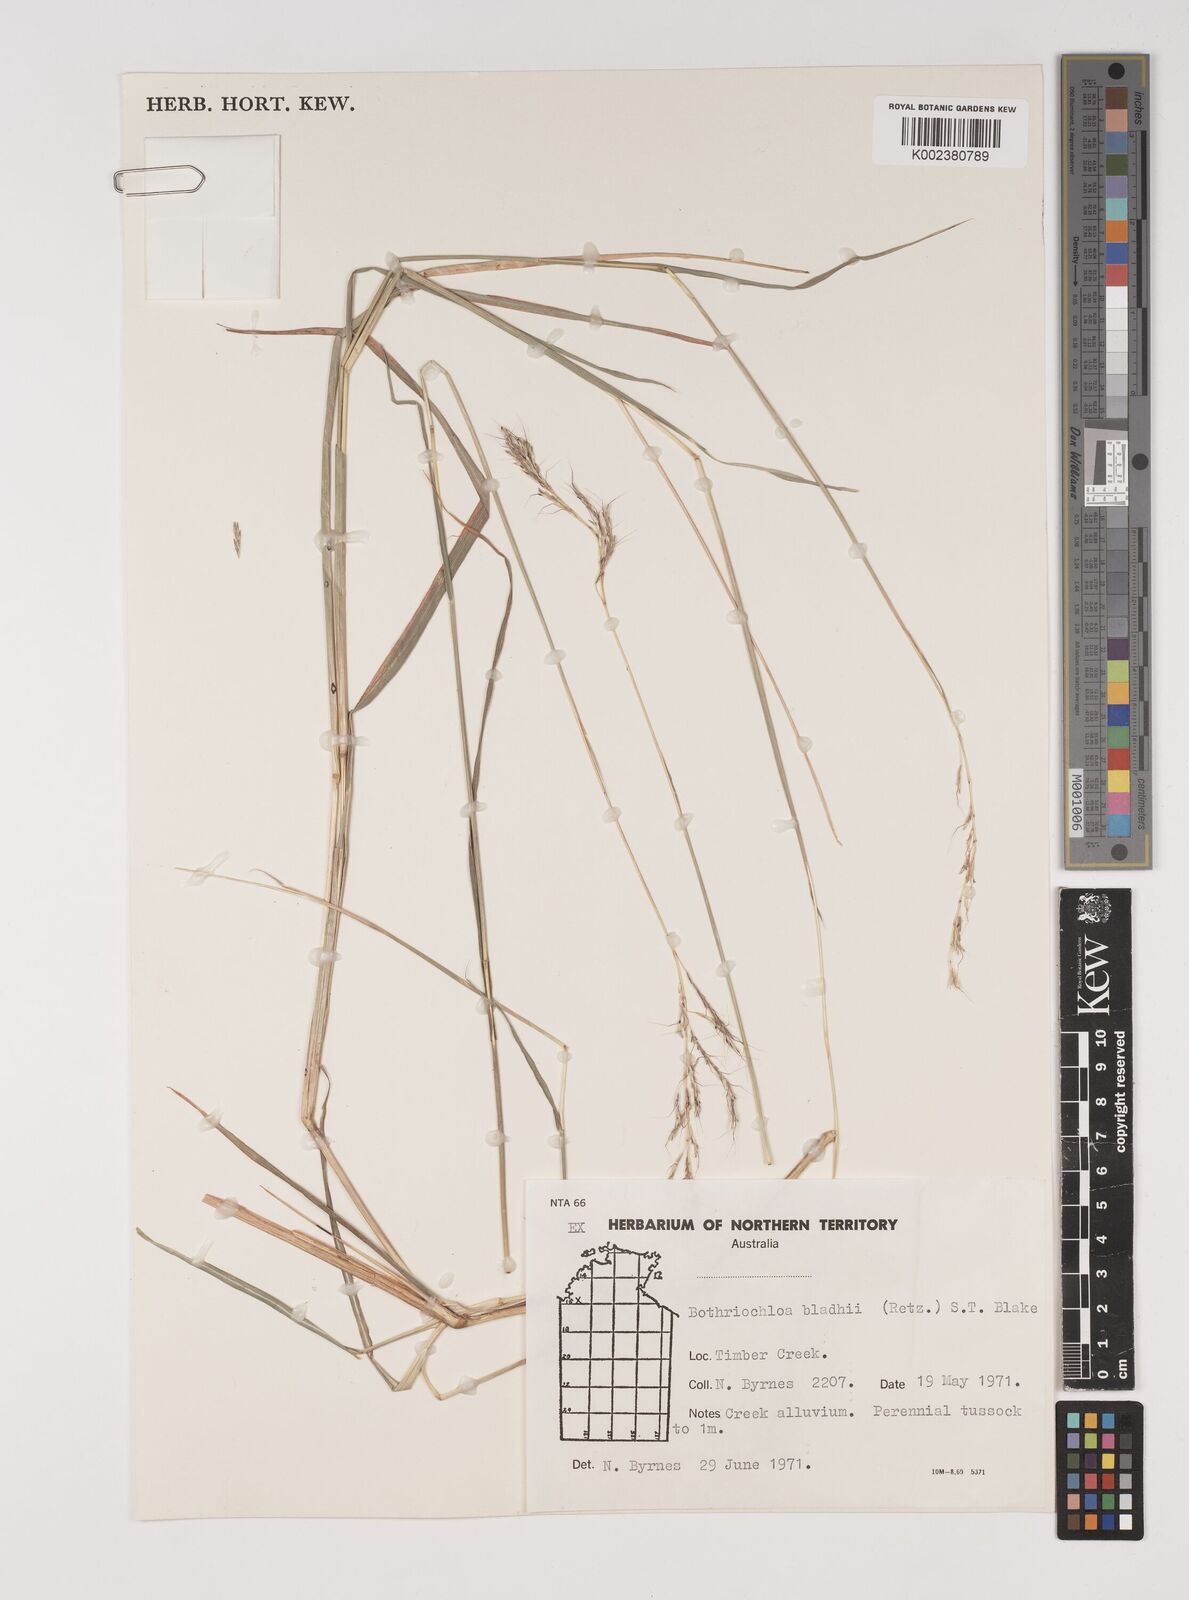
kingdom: Plantae
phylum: Tracheophyta
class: Liliopsida
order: Poales
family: Poaceae
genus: Bothriochloa
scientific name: Bothriochloa bladhii
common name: Caucasian bluestem
